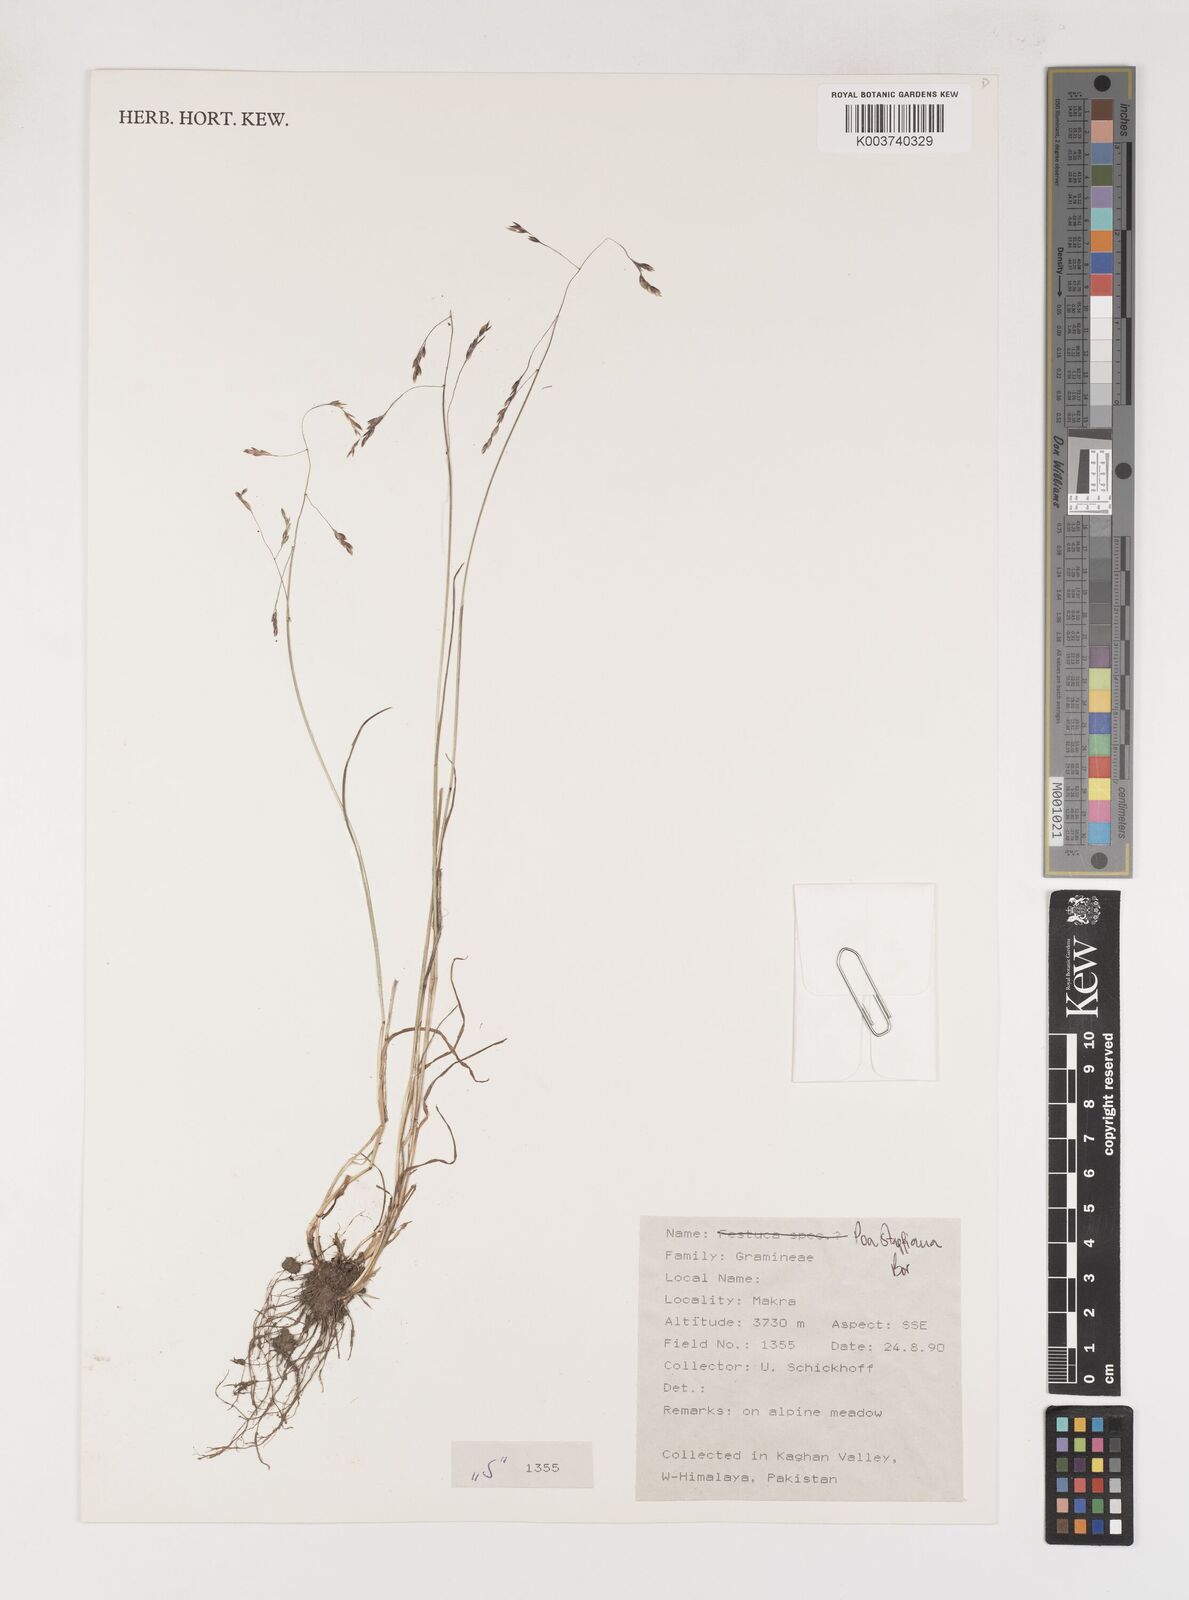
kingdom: Plantae
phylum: Tracheophyta
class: Liliopsida
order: Poales
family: Poaceae
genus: Poa
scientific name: Poa stapfiana
